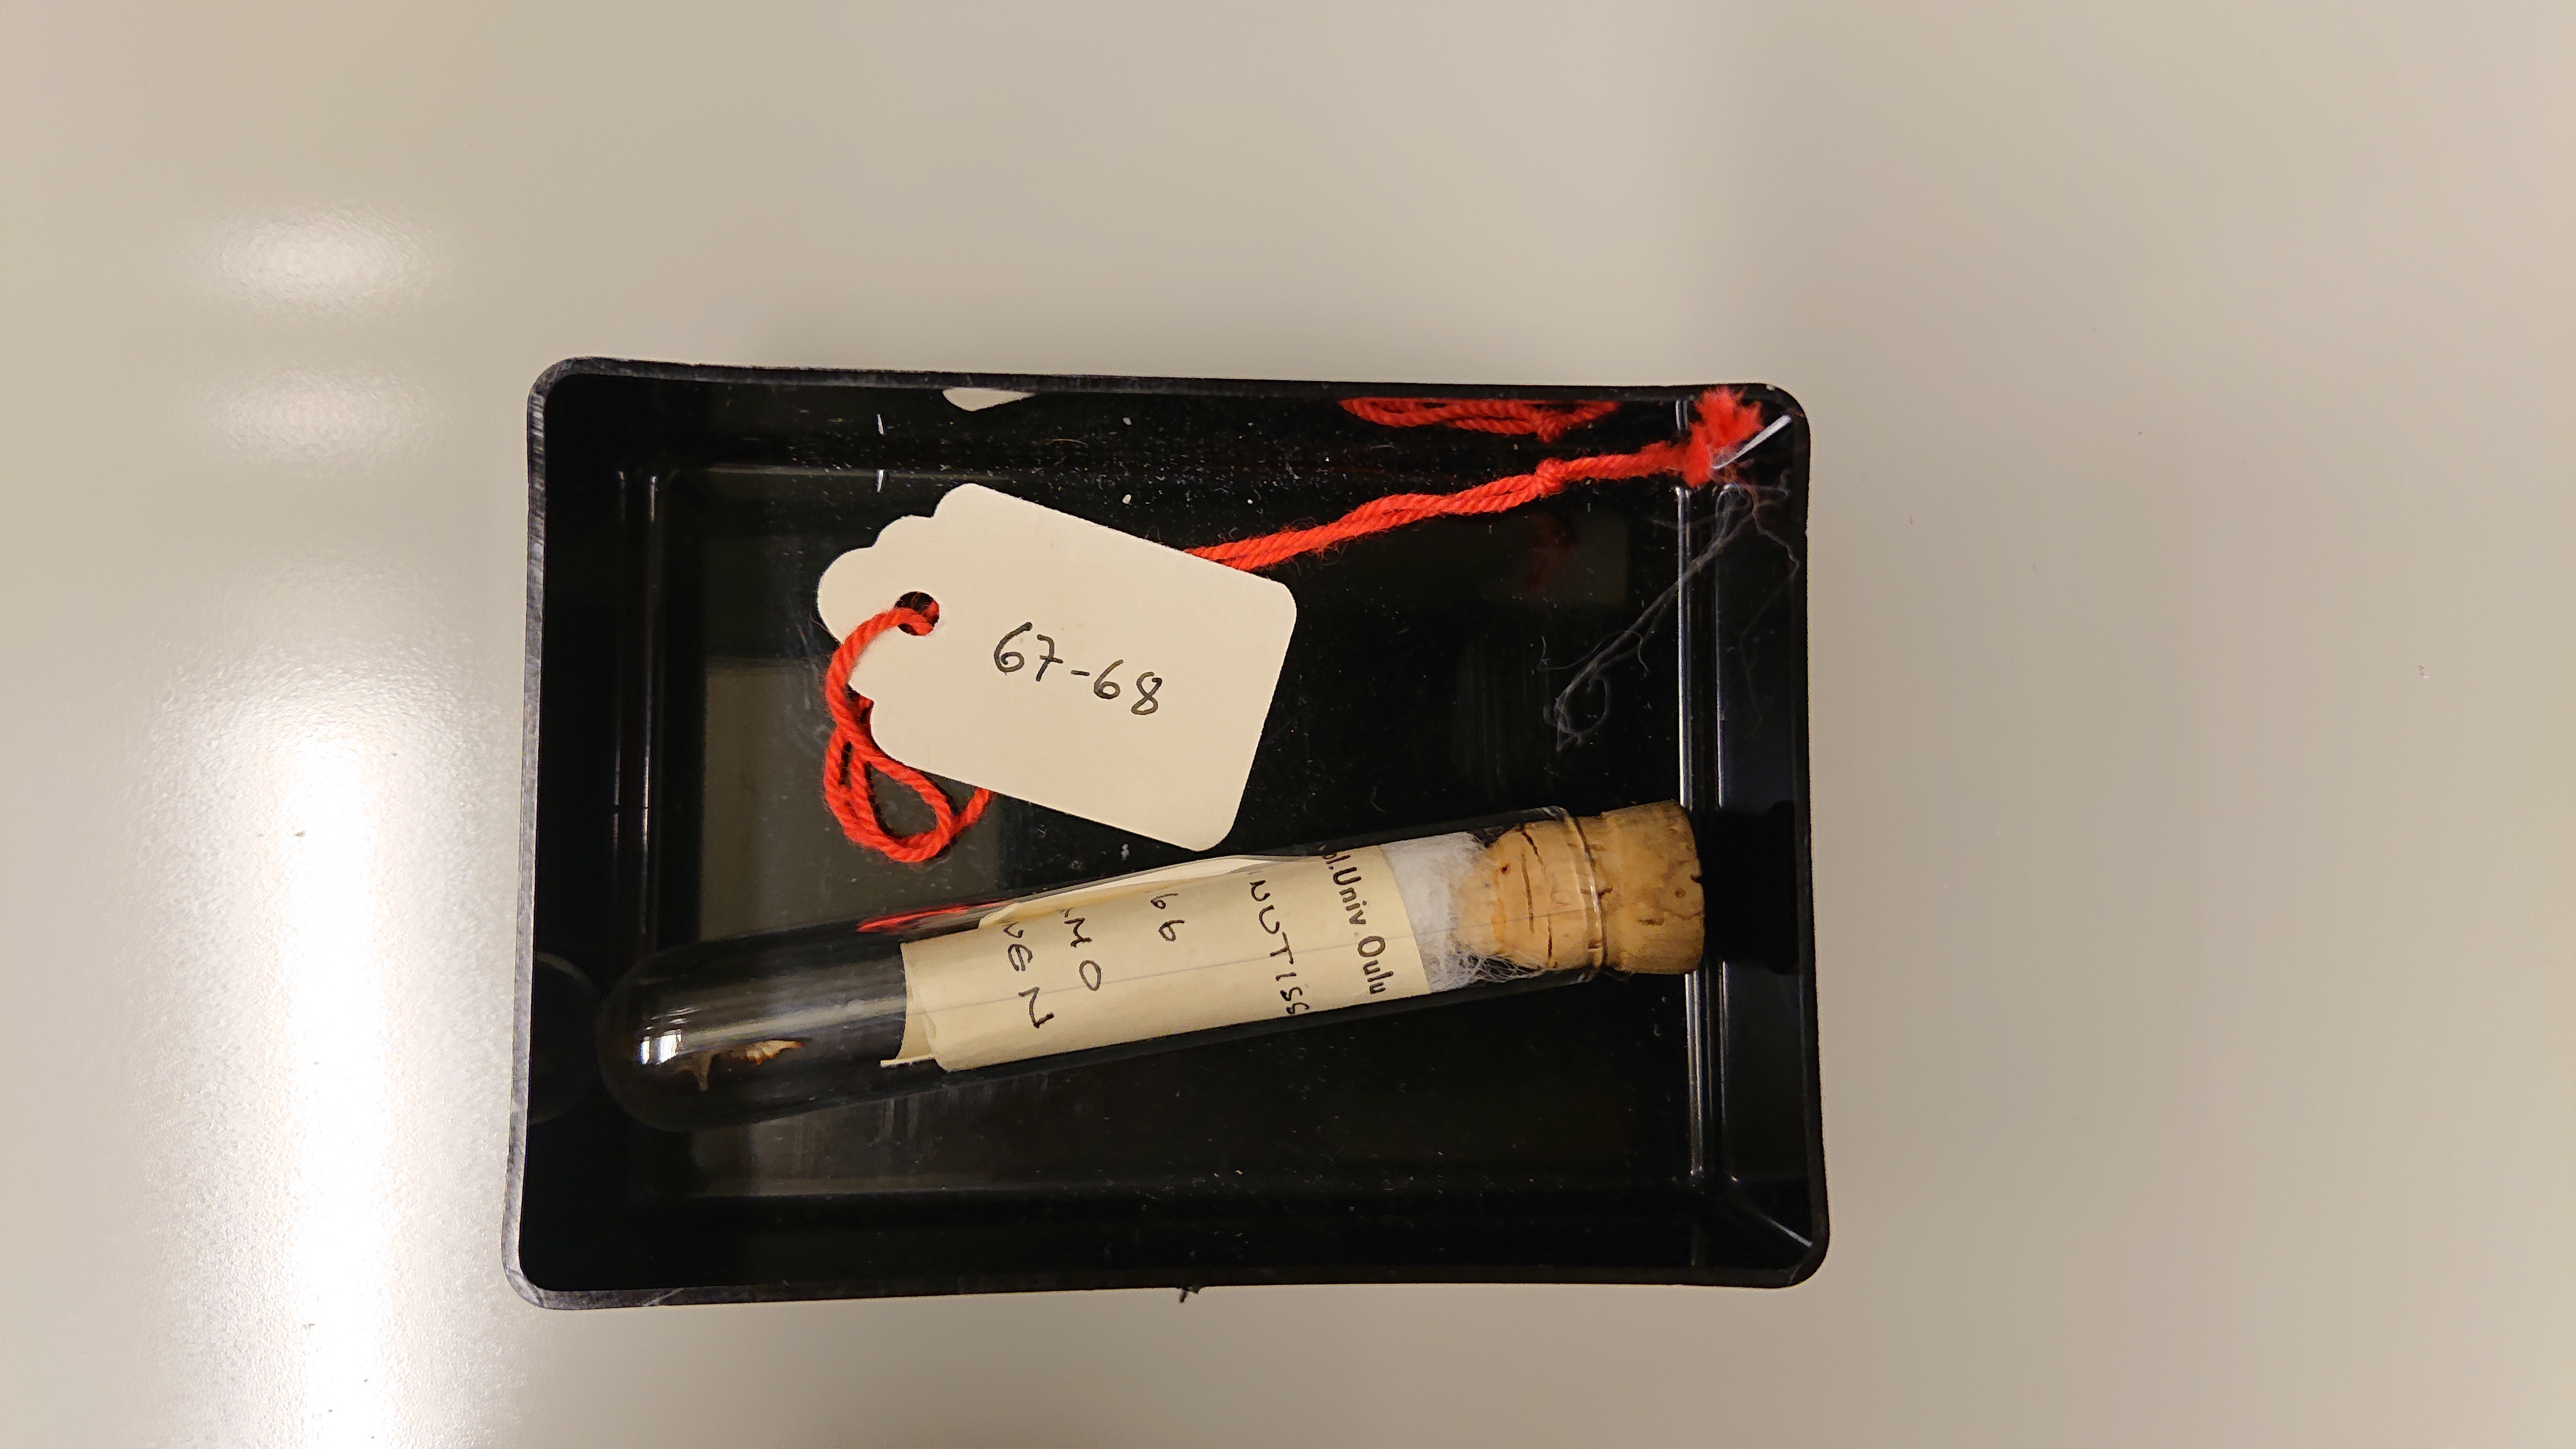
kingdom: Animalia
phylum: Chordata
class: Mammalia
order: Soricomorpha
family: Soricidae
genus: Sorex
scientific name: Sorex minutissimus
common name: Eurasian least shrew
